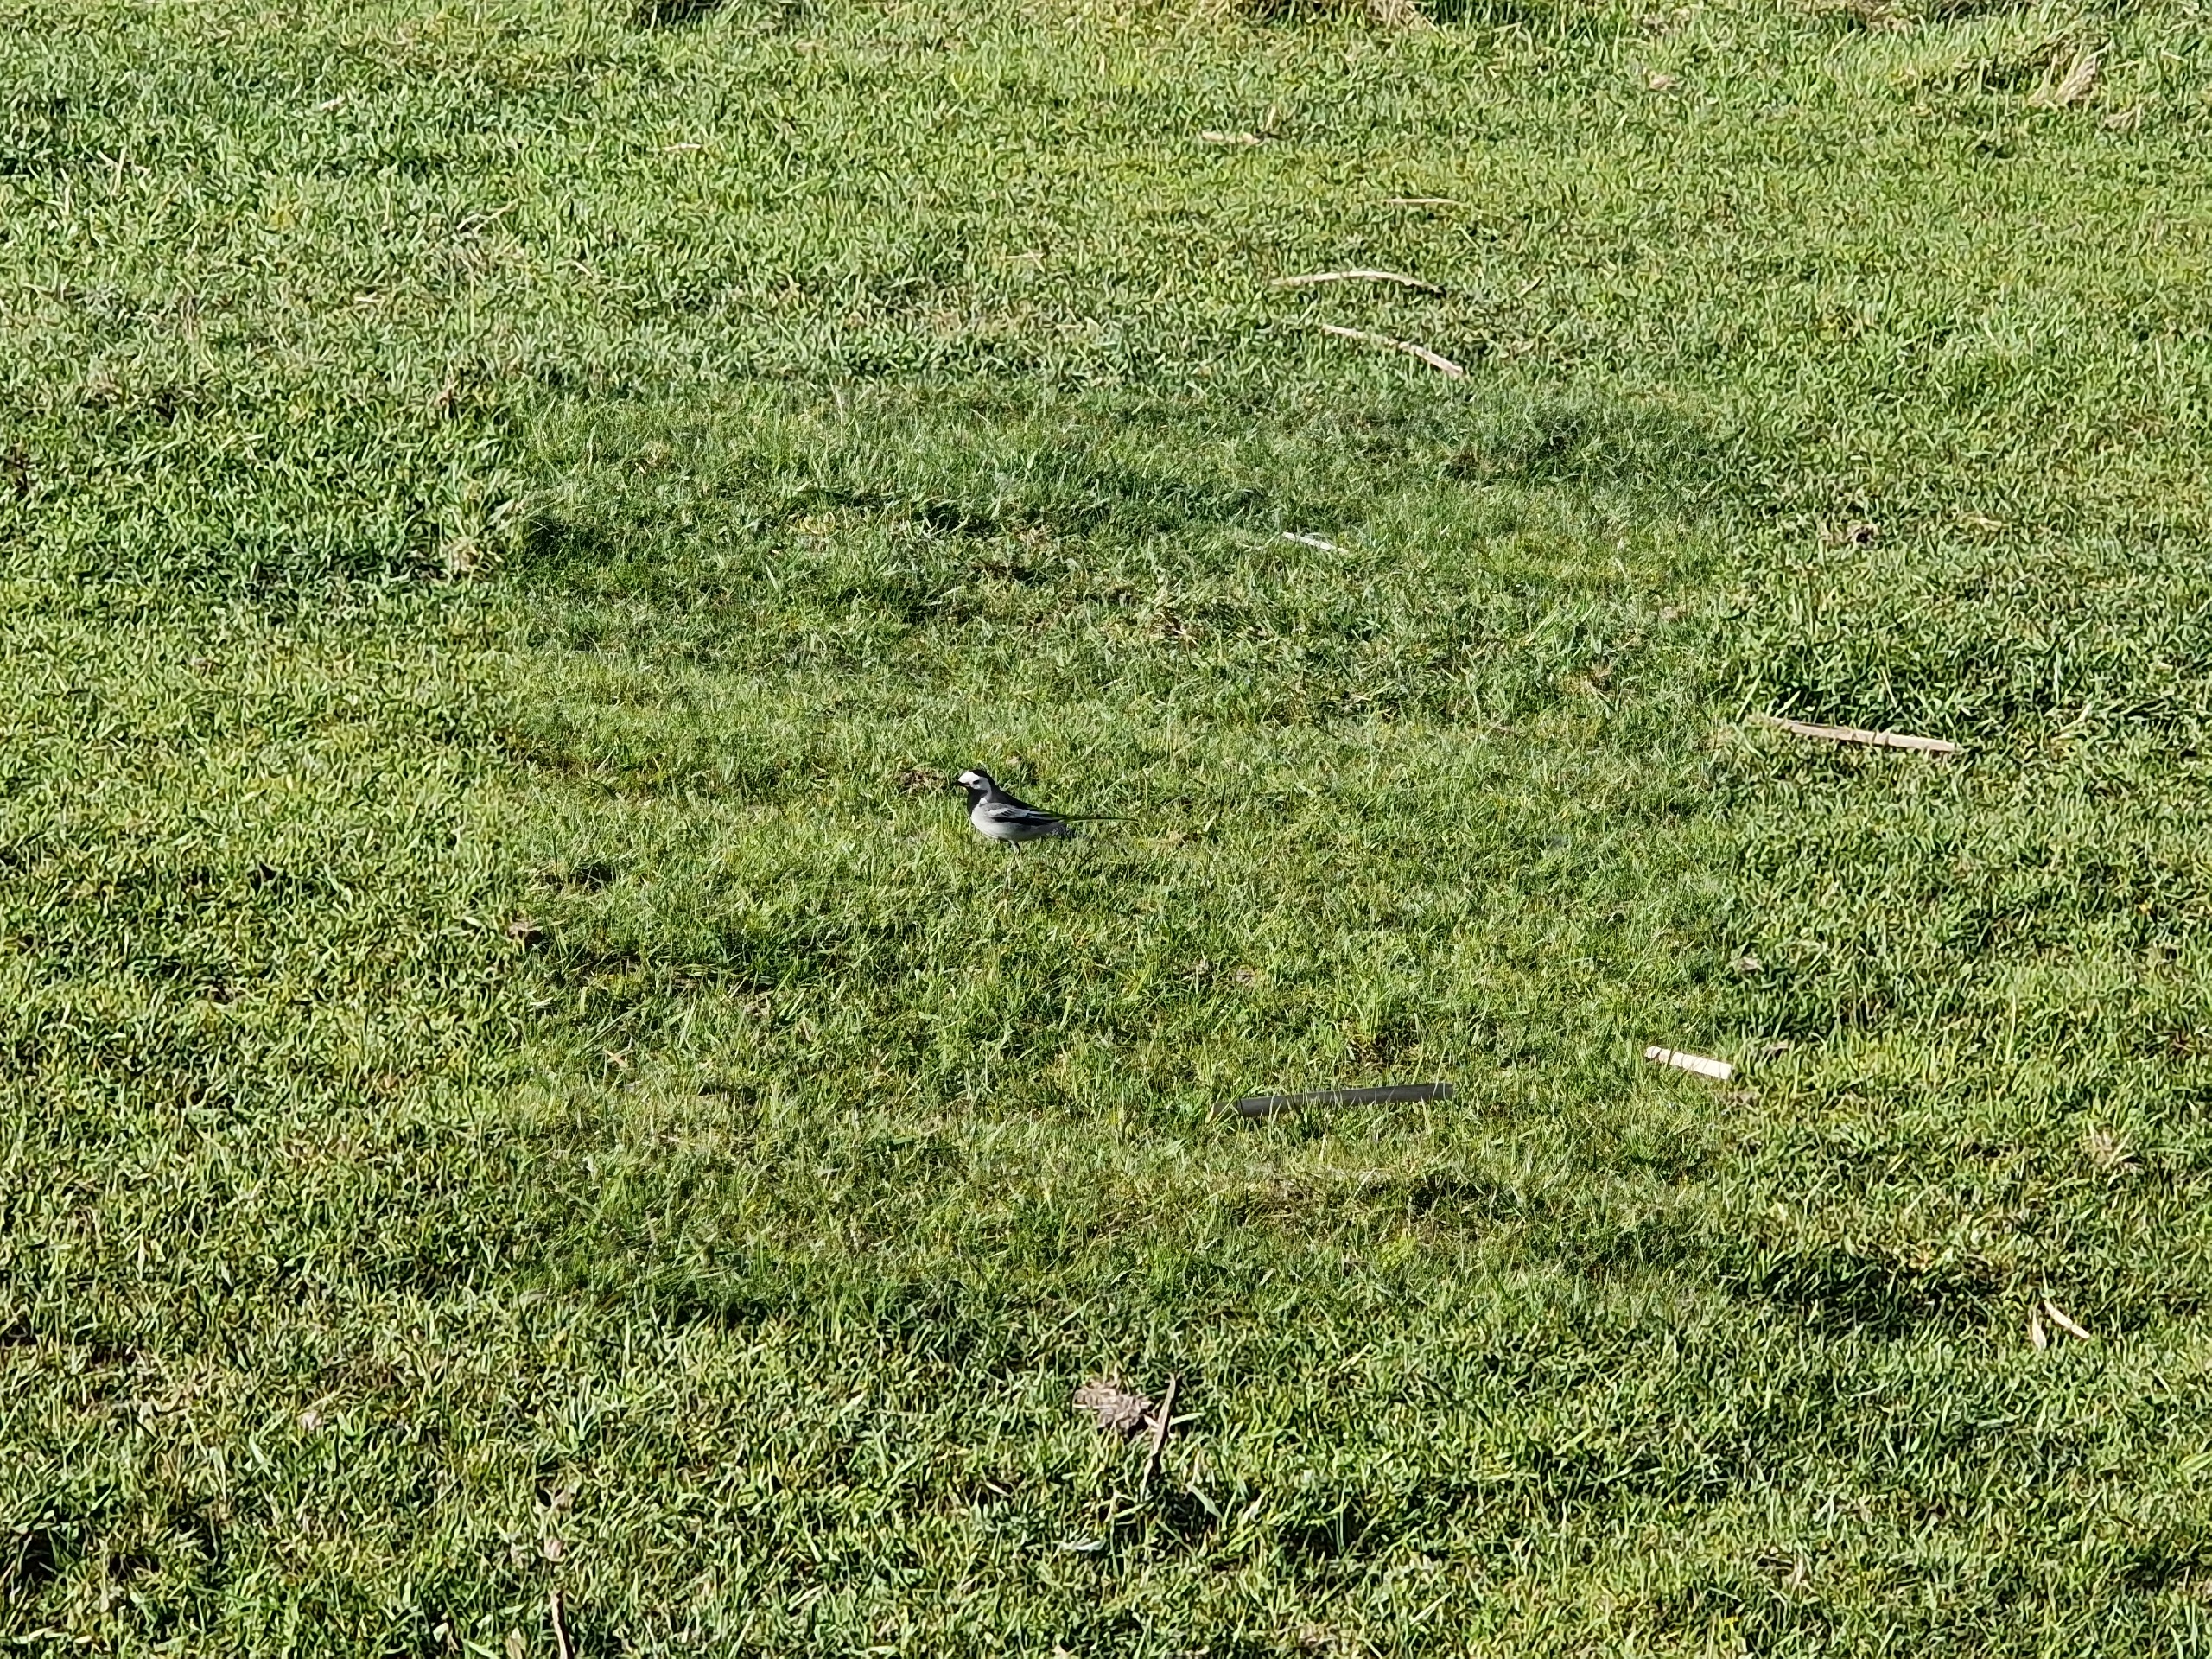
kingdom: Animalia
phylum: Chordata
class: Aves
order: Passeriformes
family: Motacillidae
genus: Motacilla
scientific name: Motacilla alba
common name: Hvid vipstjert
